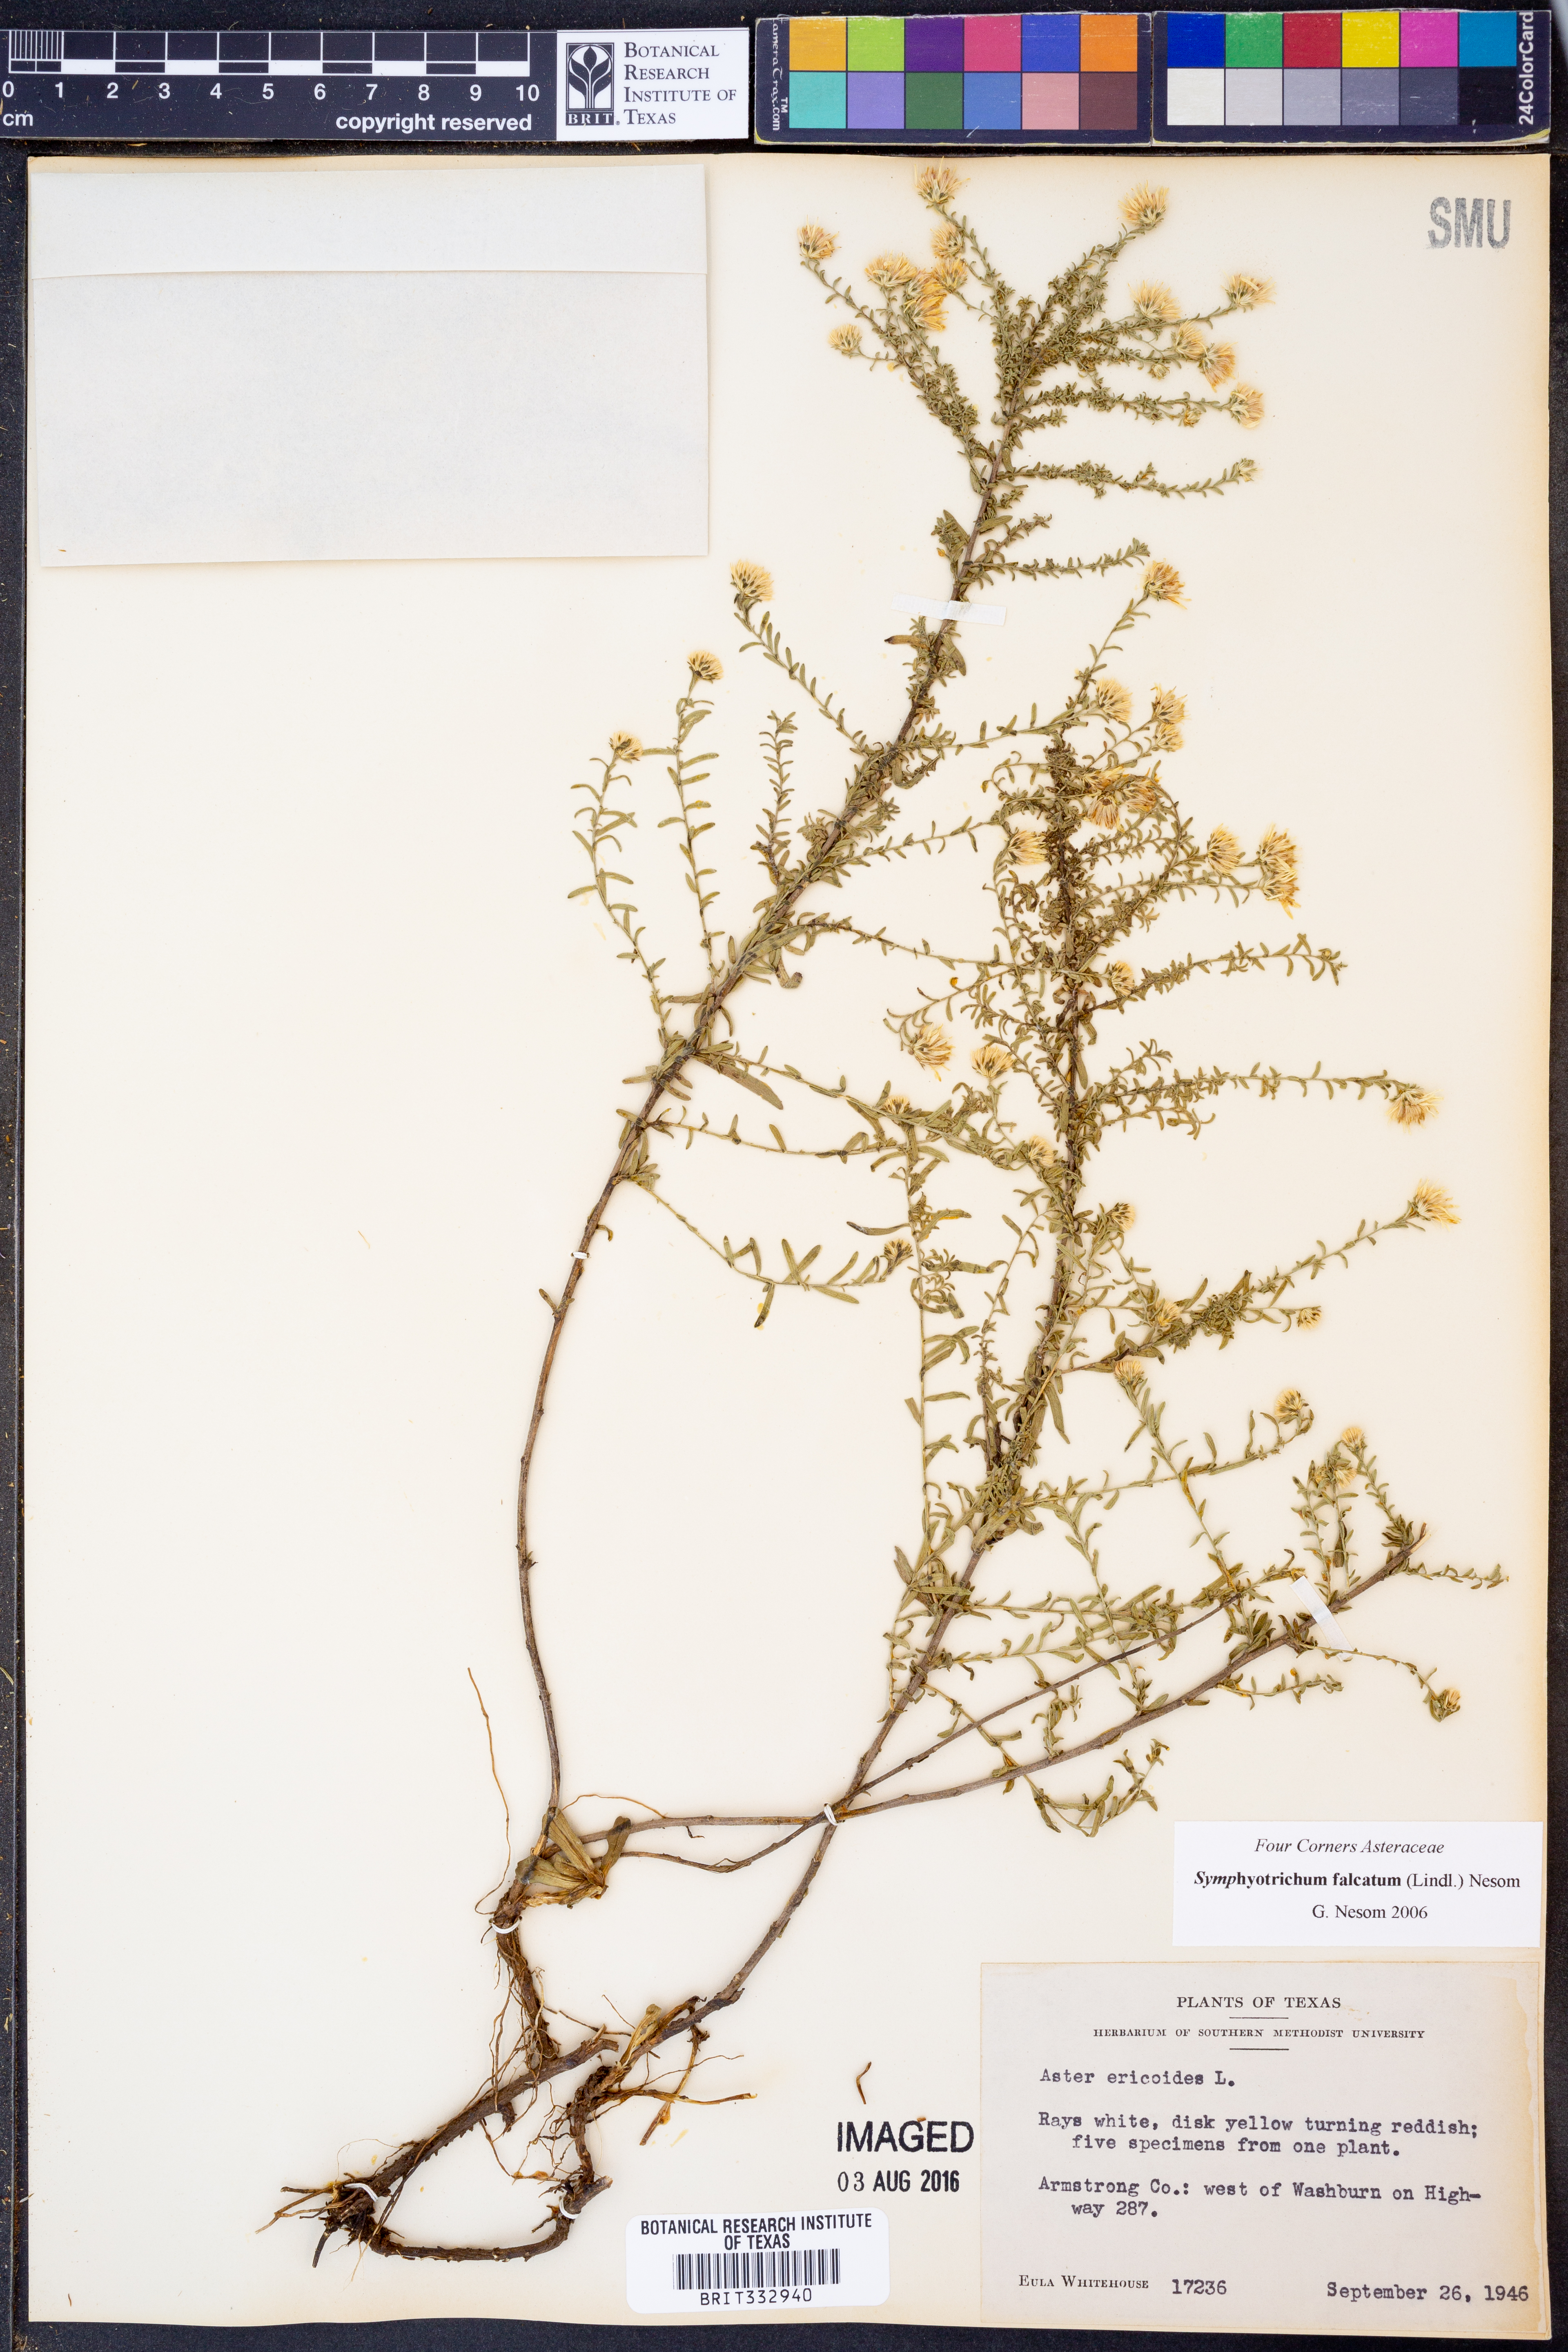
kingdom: Plantae
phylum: Tracheophyta
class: Magnoliopsida
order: Asterales
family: Asteraceae
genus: Symphyotrichum
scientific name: Symphyotrichum falcatum
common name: Creeping white prairie aster
